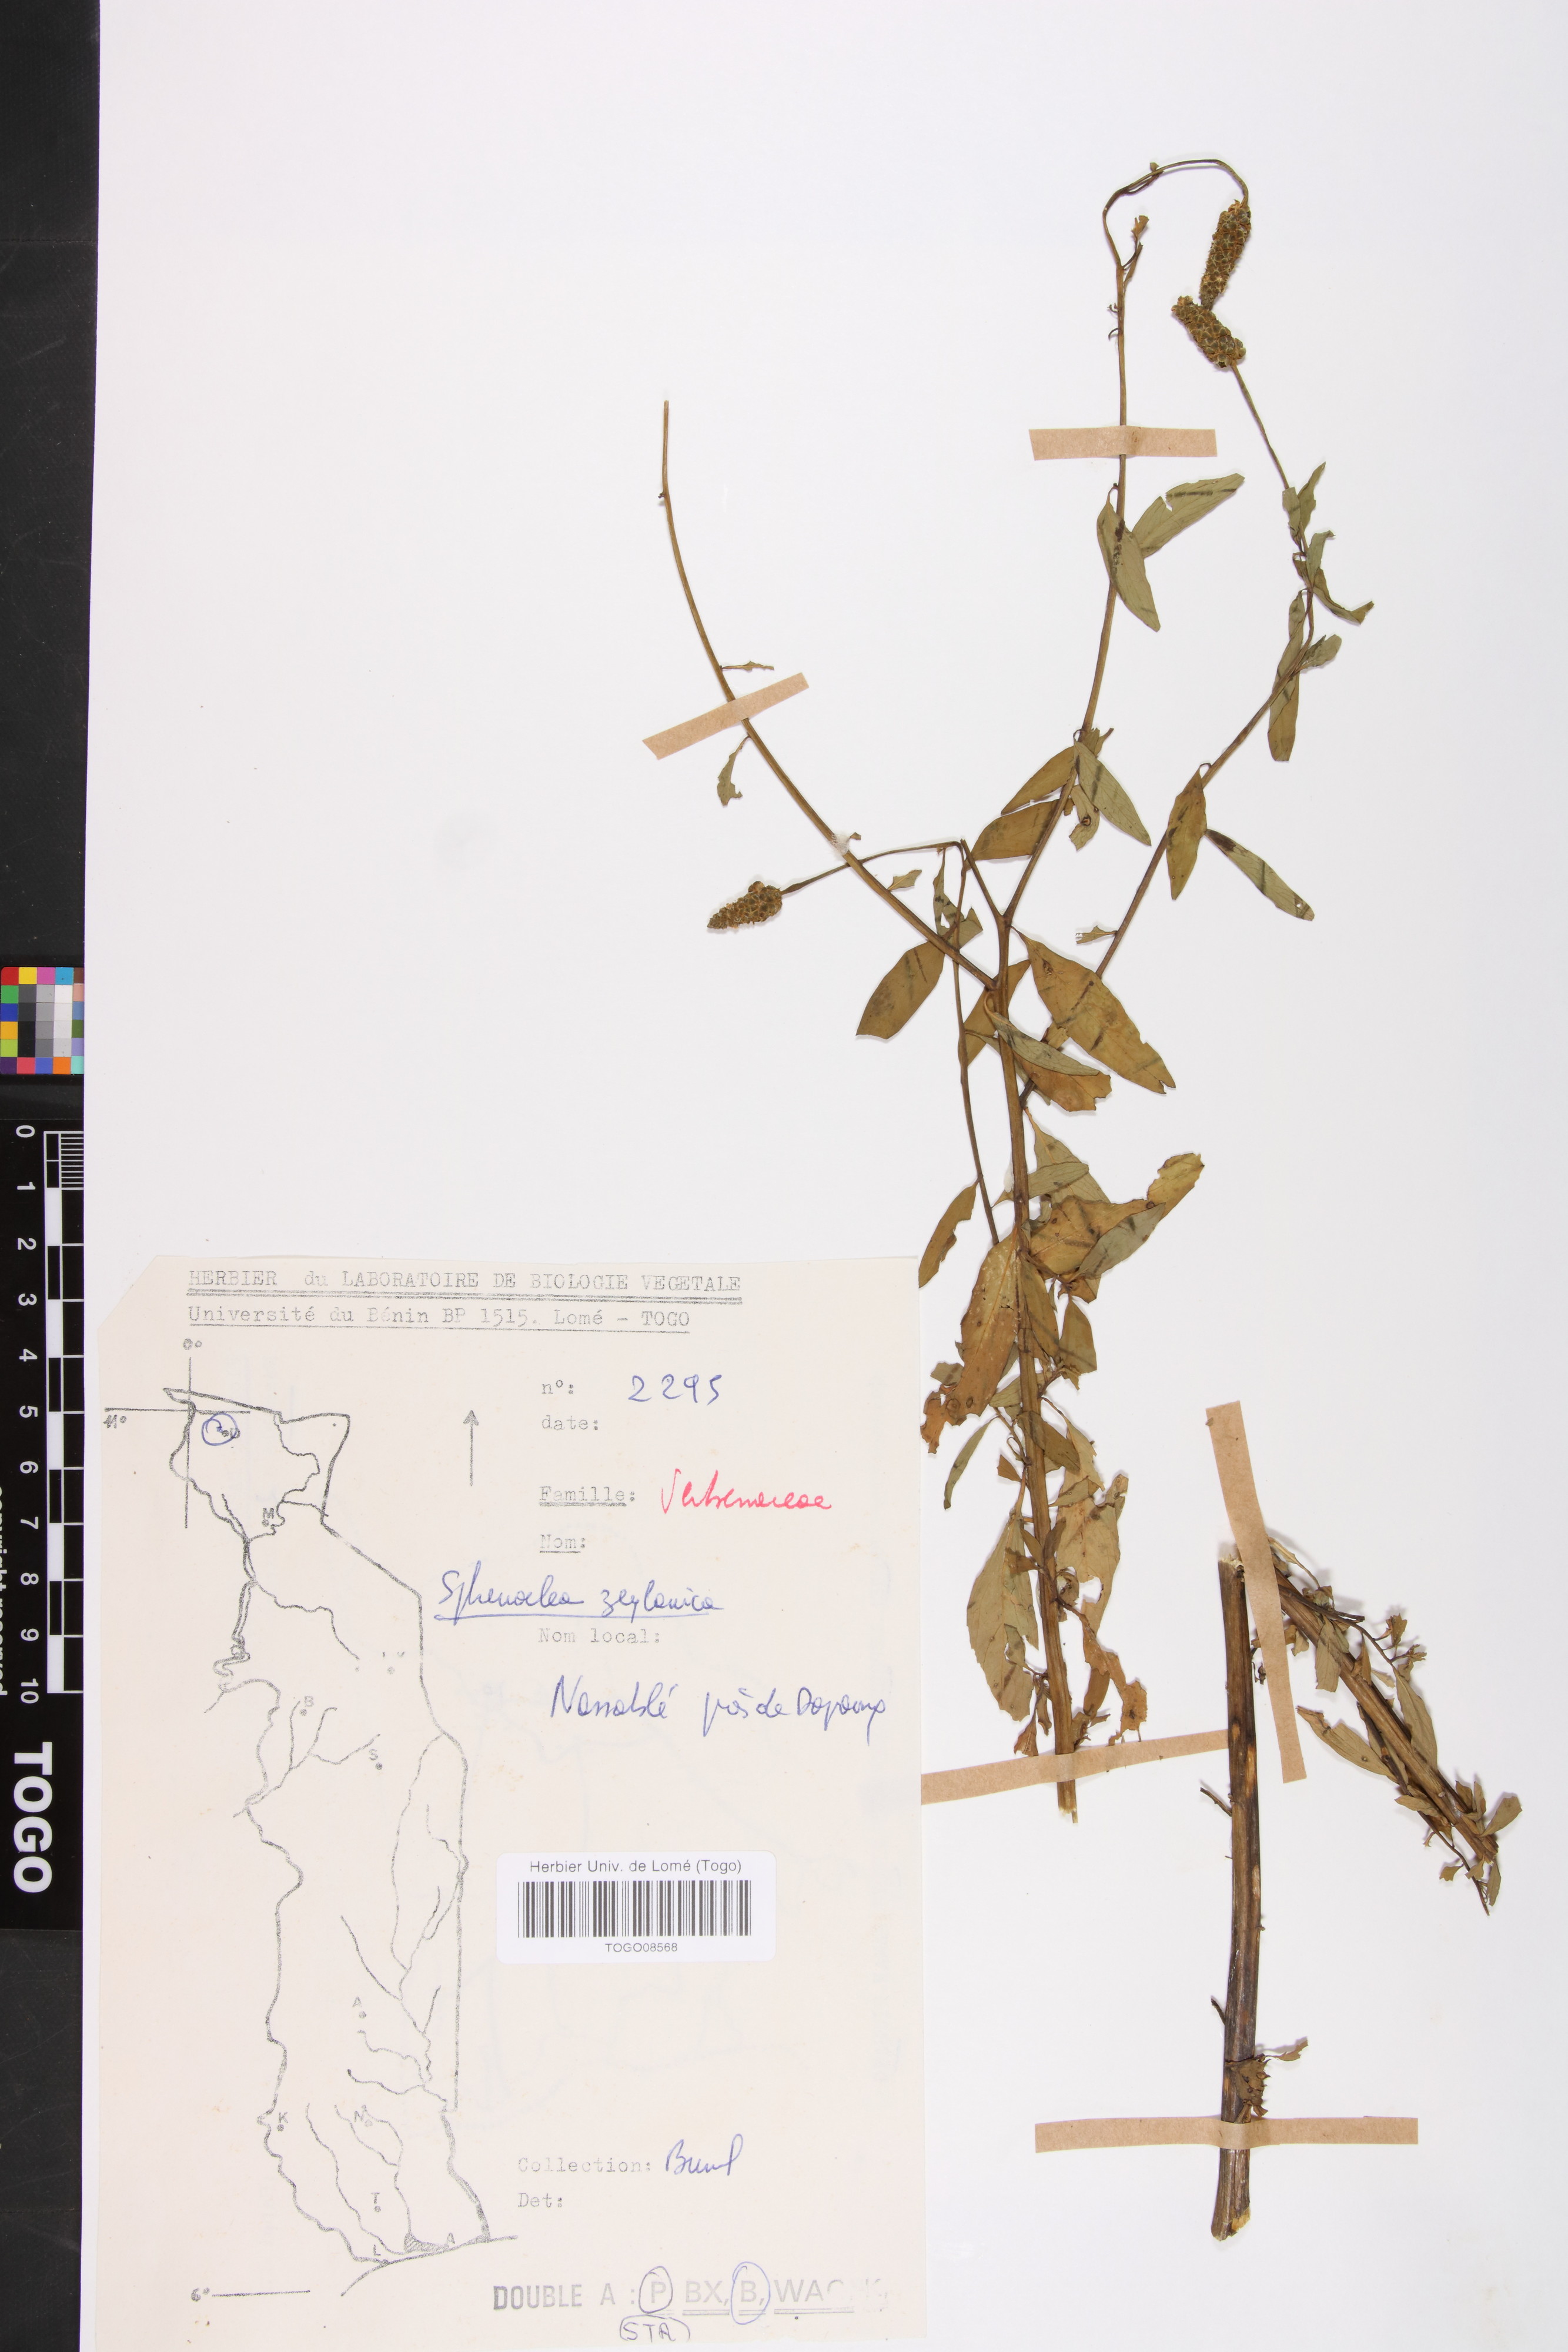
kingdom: Plantae
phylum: Tracheophyta
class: Magnoliopsida
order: Solanales
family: Sphenocleaceae
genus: Sphenoclea
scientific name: Sphenoclea zeylanica
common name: Chickenspike
